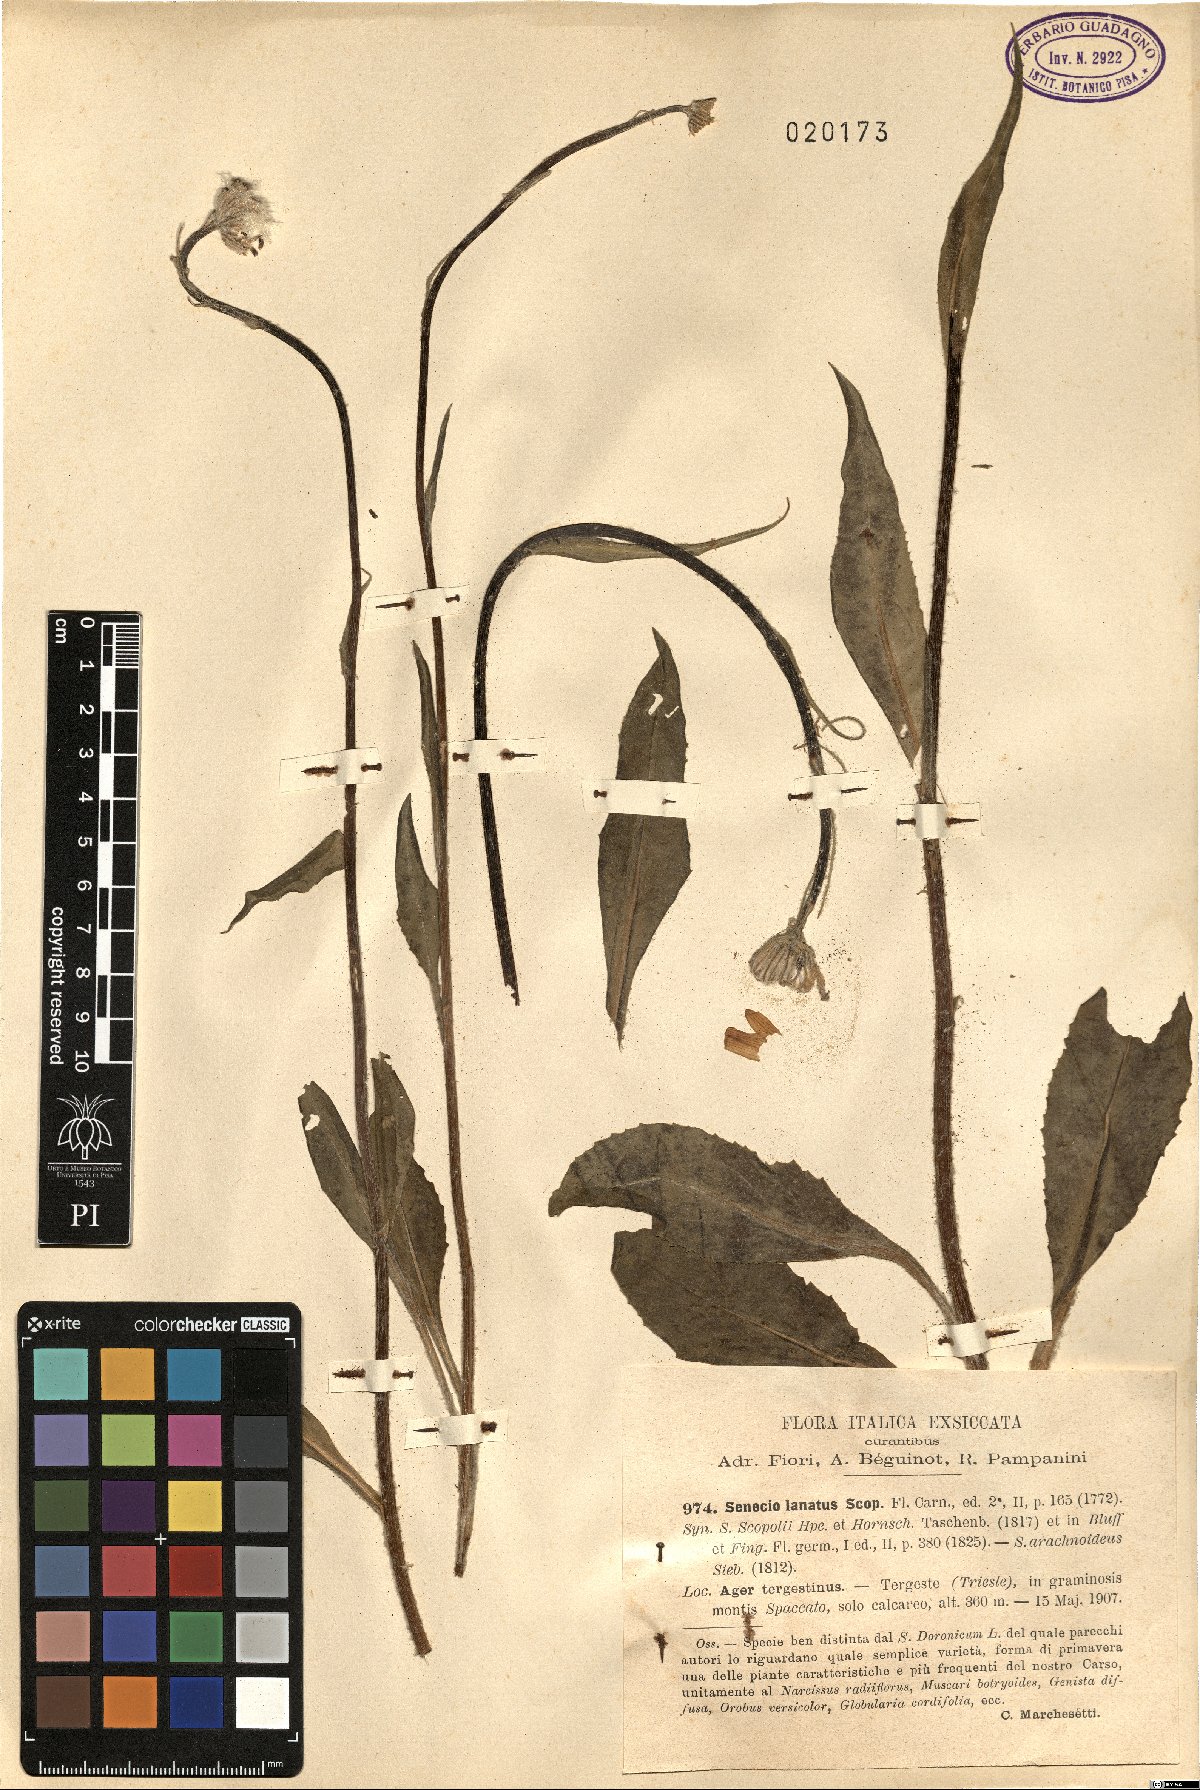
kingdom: Plantae
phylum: Tracheophyta
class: Magnoliopsida
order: Asterales
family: Asteraceae
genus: Senecio
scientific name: Senecio scopolii
